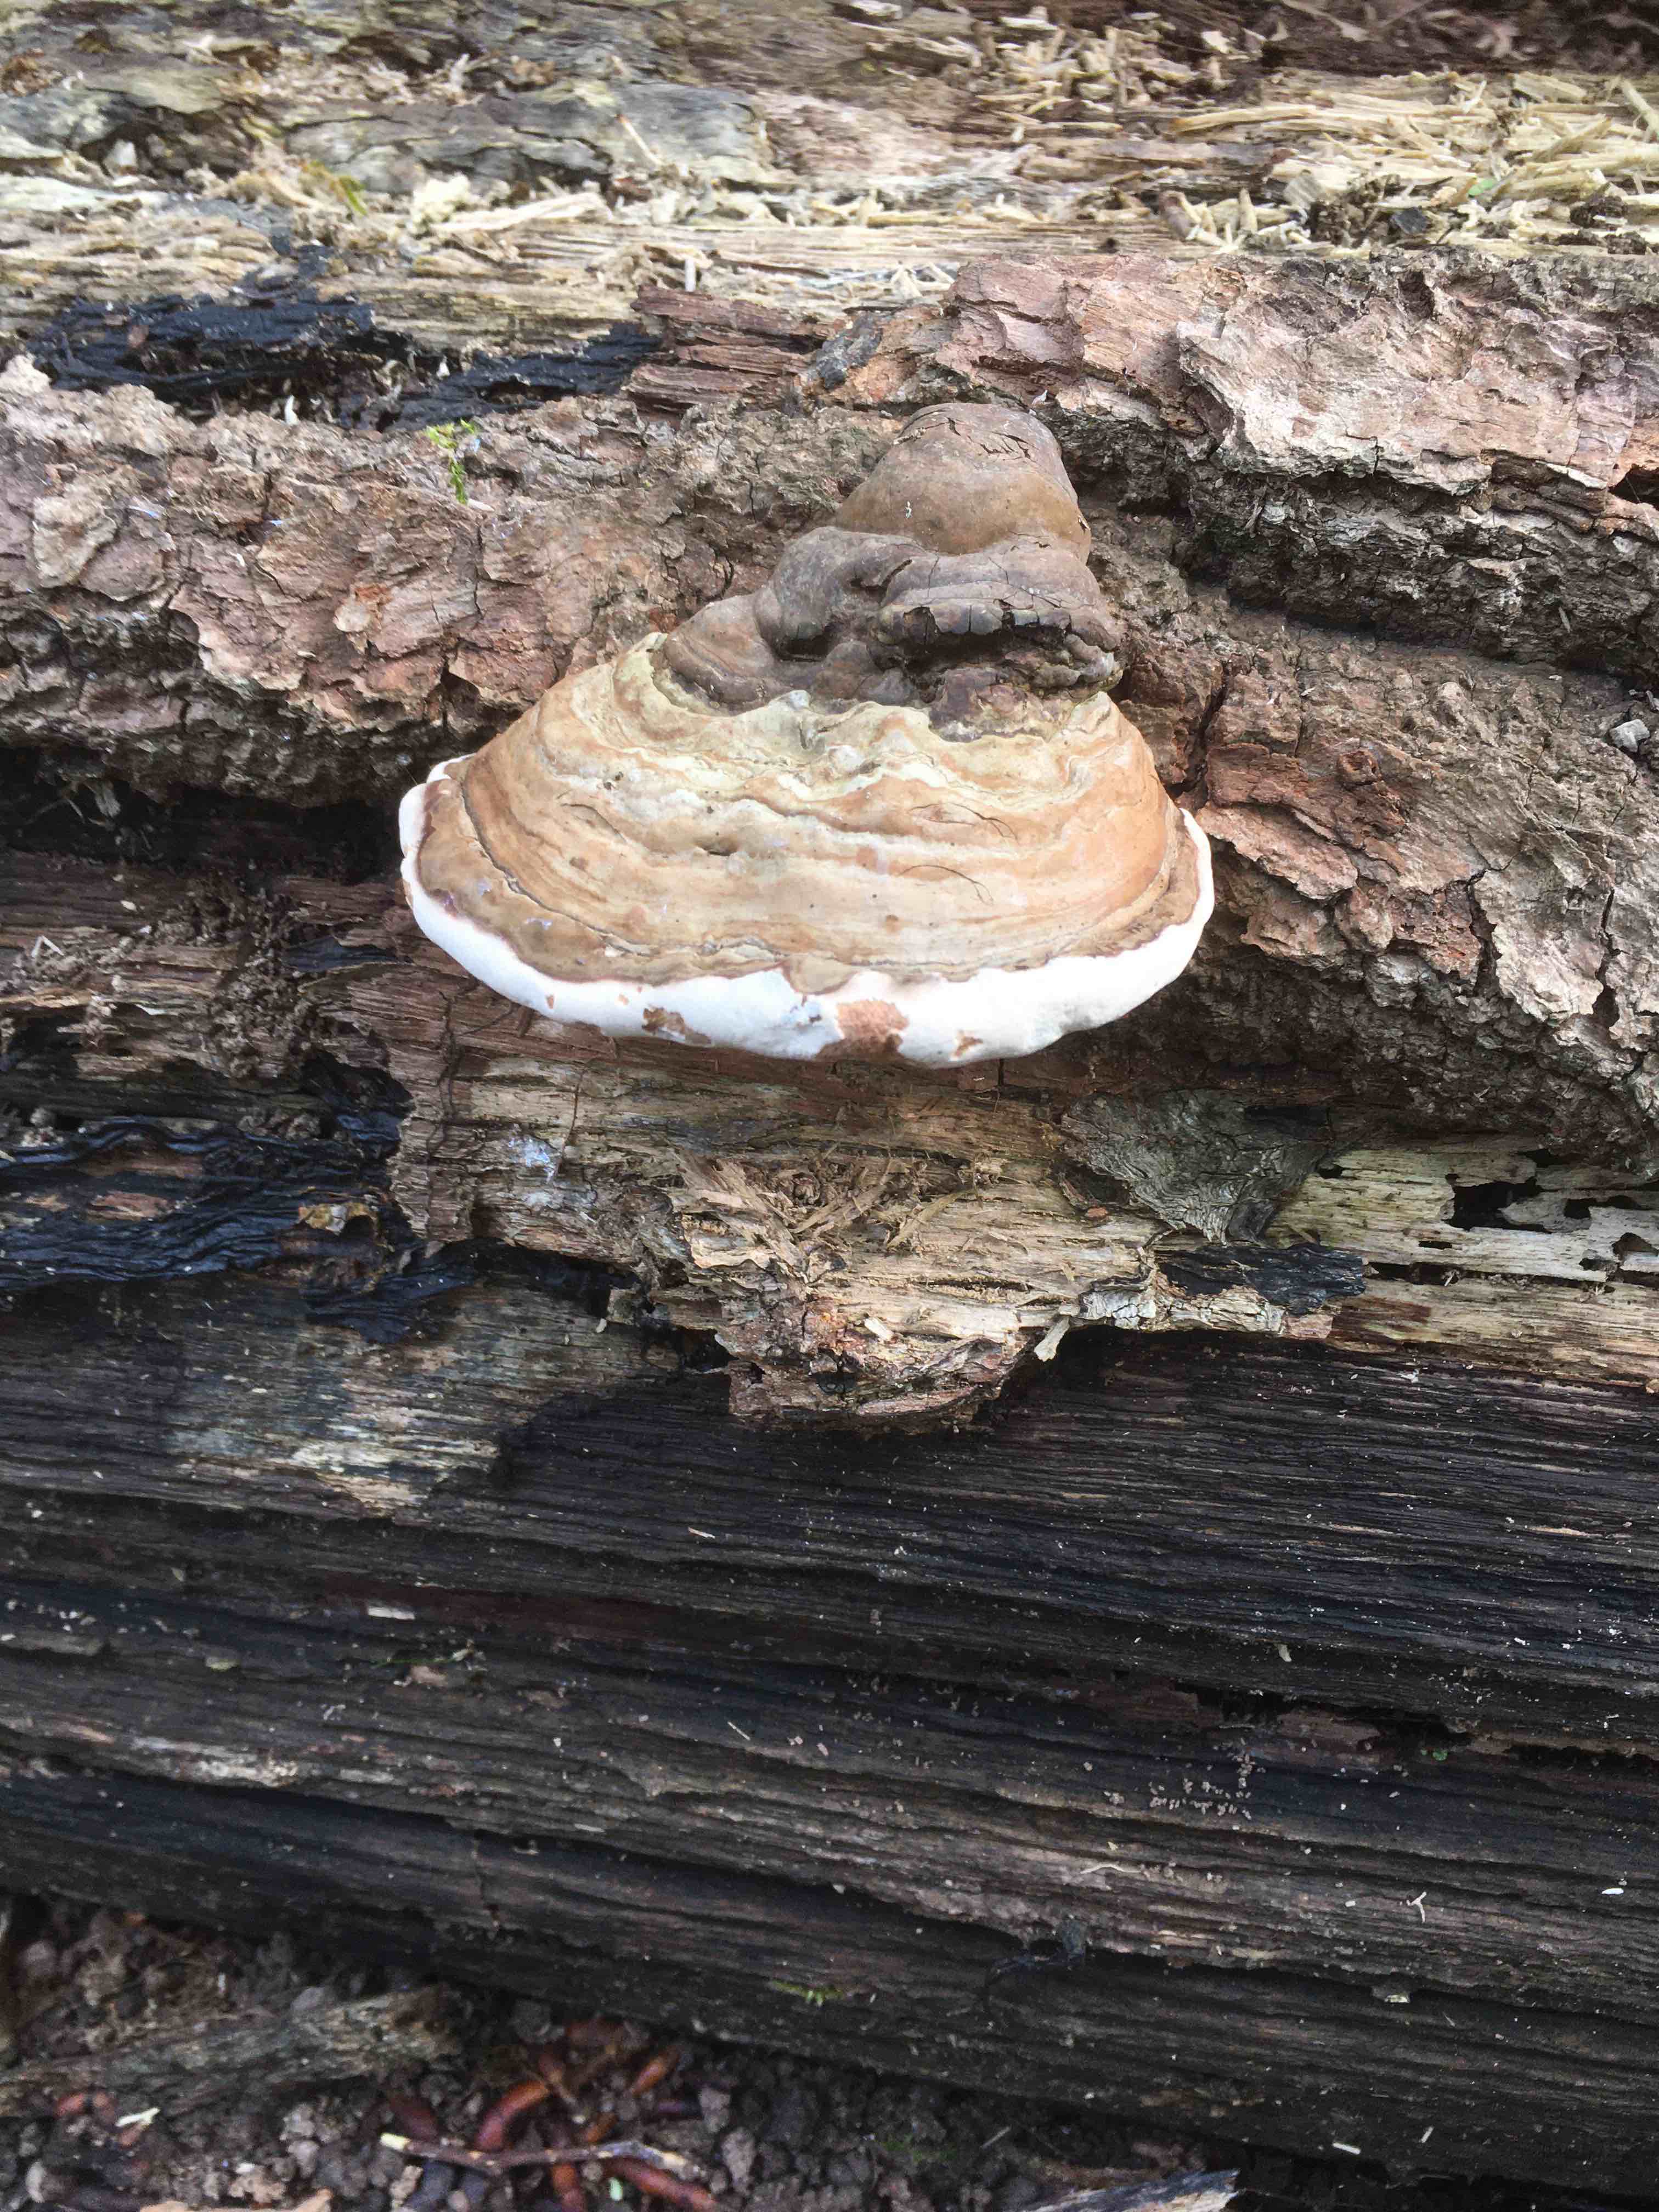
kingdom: Fungi
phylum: Basidiomycota
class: Agaricomycetes
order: Polyporales
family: Polyporaceae
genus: Ganoderma
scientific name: Ganoderma applanatum
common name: flad lakporesvamp
